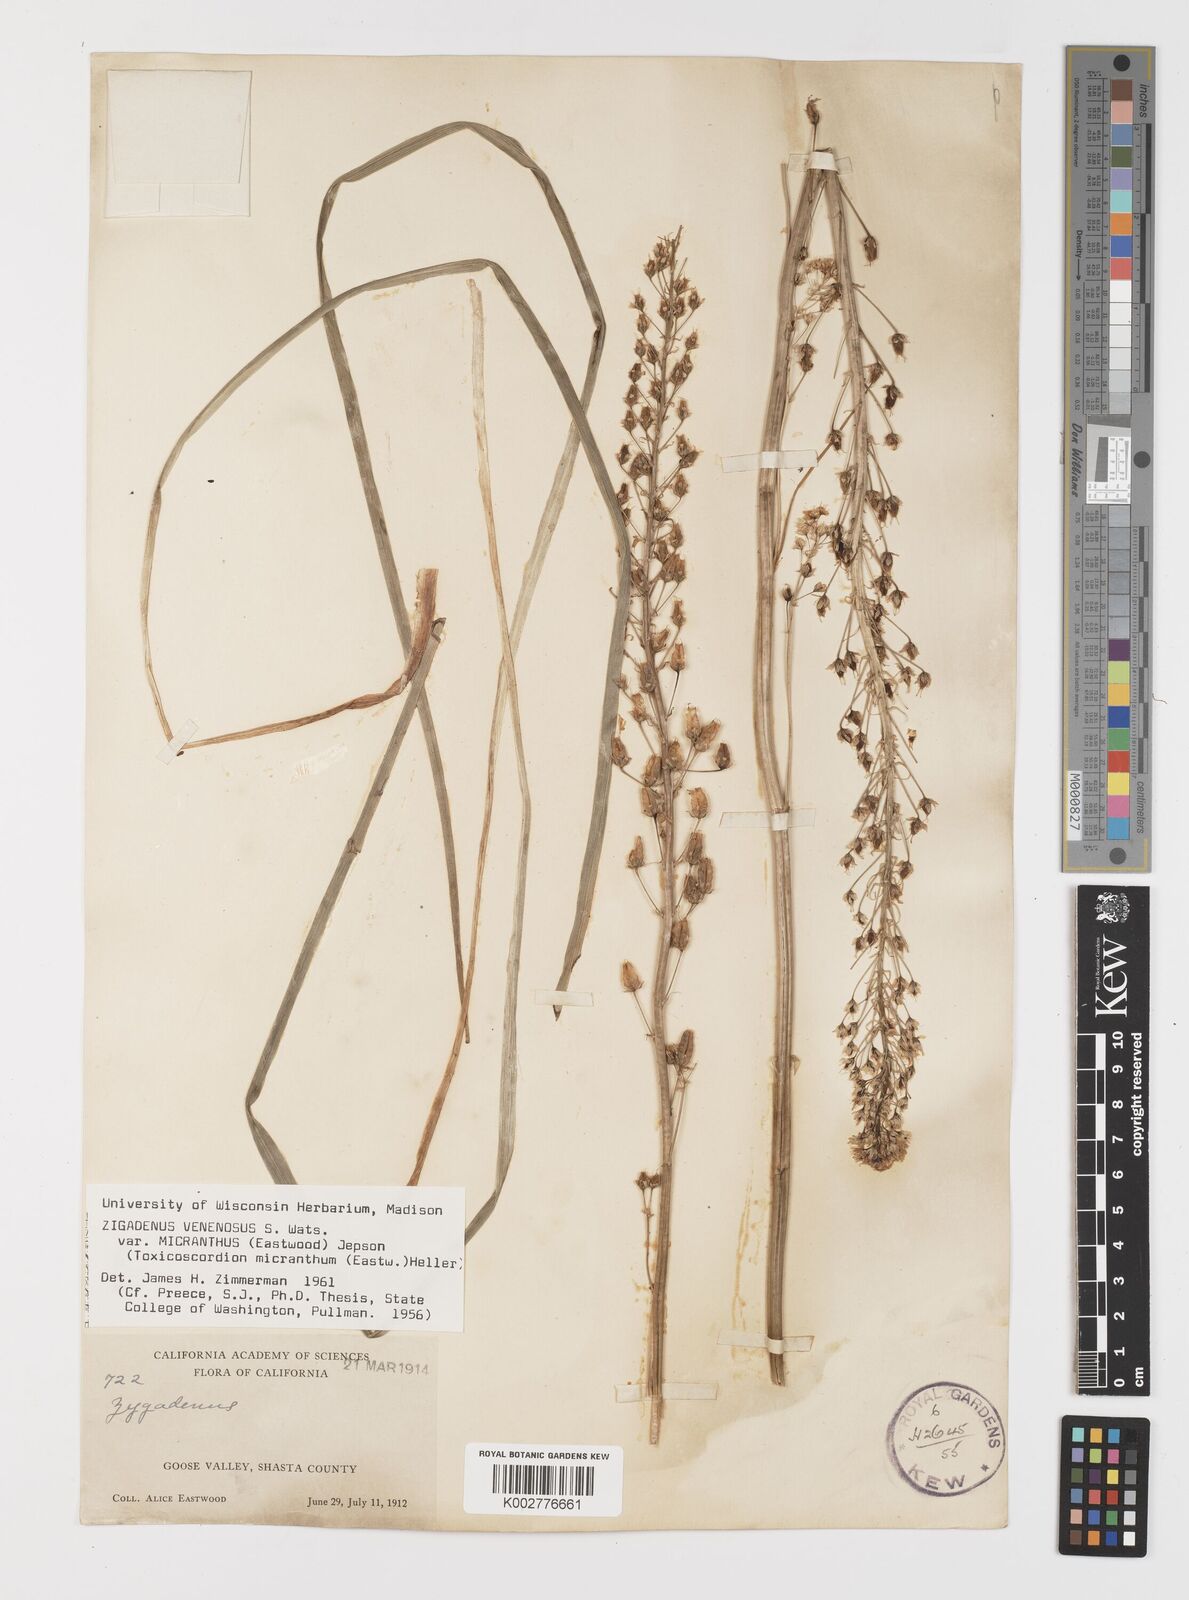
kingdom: Plantae
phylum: Tracheophyta
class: Liliopsida
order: Liliales
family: Melanthiaceae
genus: Toxicoscordion
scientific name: Toxicoscordion venenosum
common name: Meadow death camas
